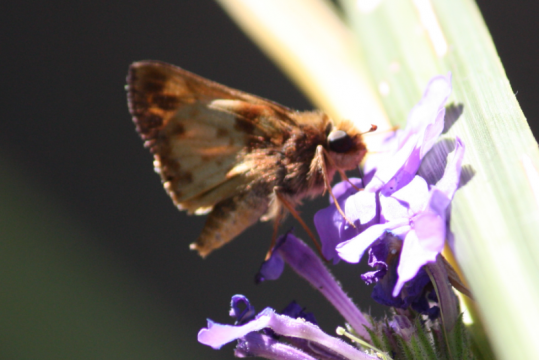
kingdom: Animalia
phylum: Arthropoda
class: Insecta
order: Lepidoptera
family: Hesperiidae
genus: Lon
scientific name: Lon zabulon
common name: Zabulon Skipper
